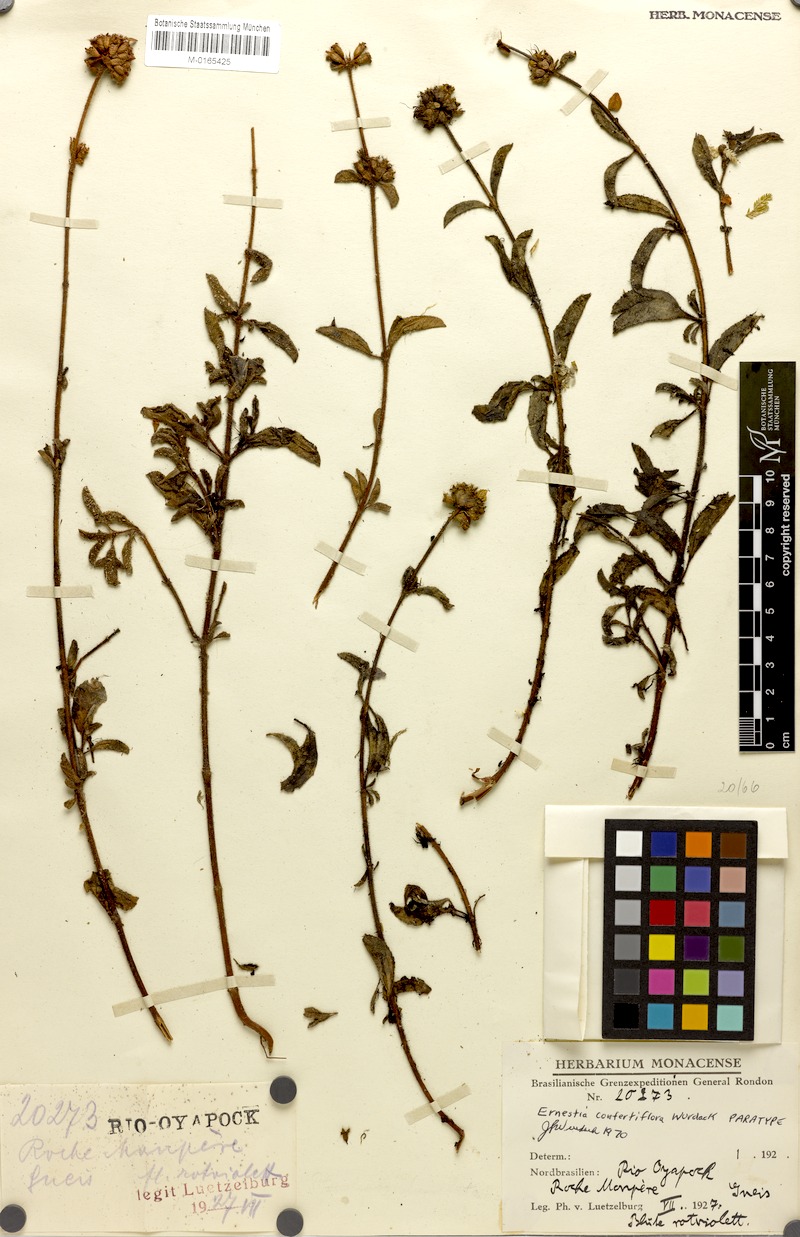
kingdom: Plantae
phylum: Tracheophyta
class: Magnoliopsida
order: Myrtales
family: Melastomataceae
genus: Ernestia
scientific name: Ernestia confertiflora
